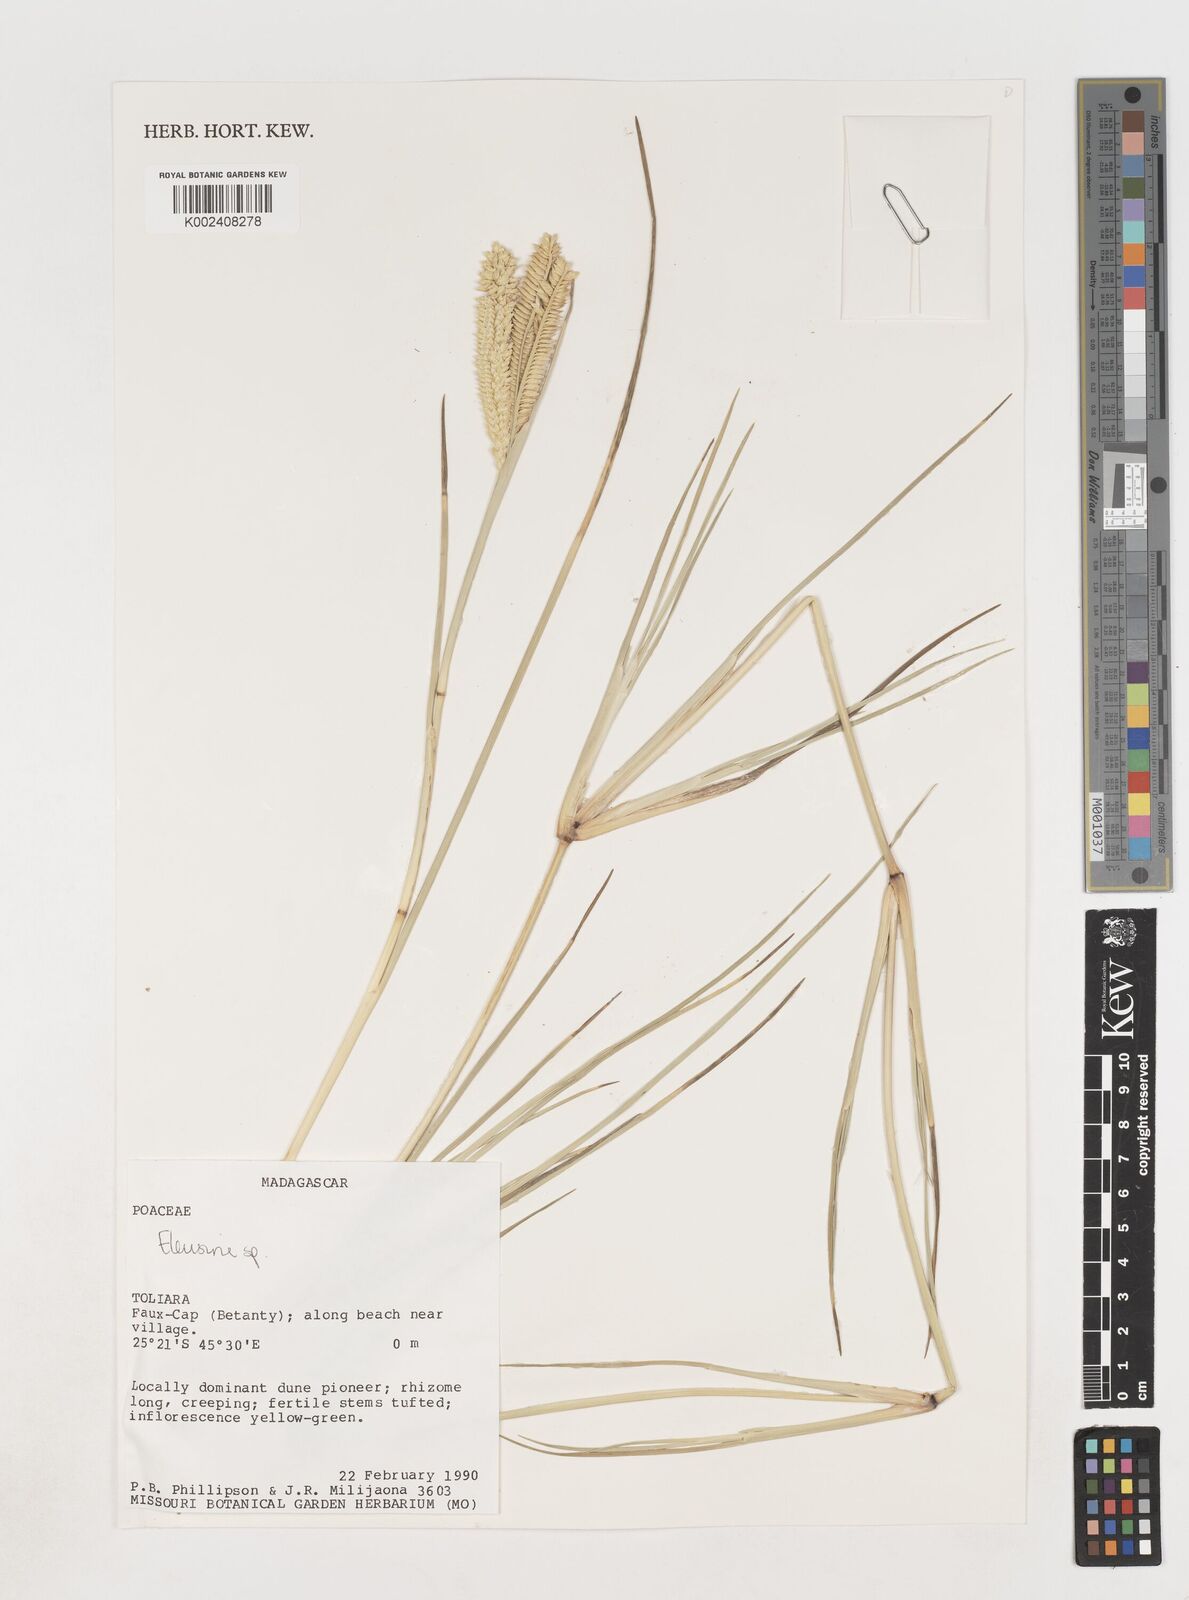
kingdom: Plantae
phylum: Tracheophyta
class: Liliopsida
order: Poales
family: Poaceae
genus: Eleusine
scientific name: Eleusine
